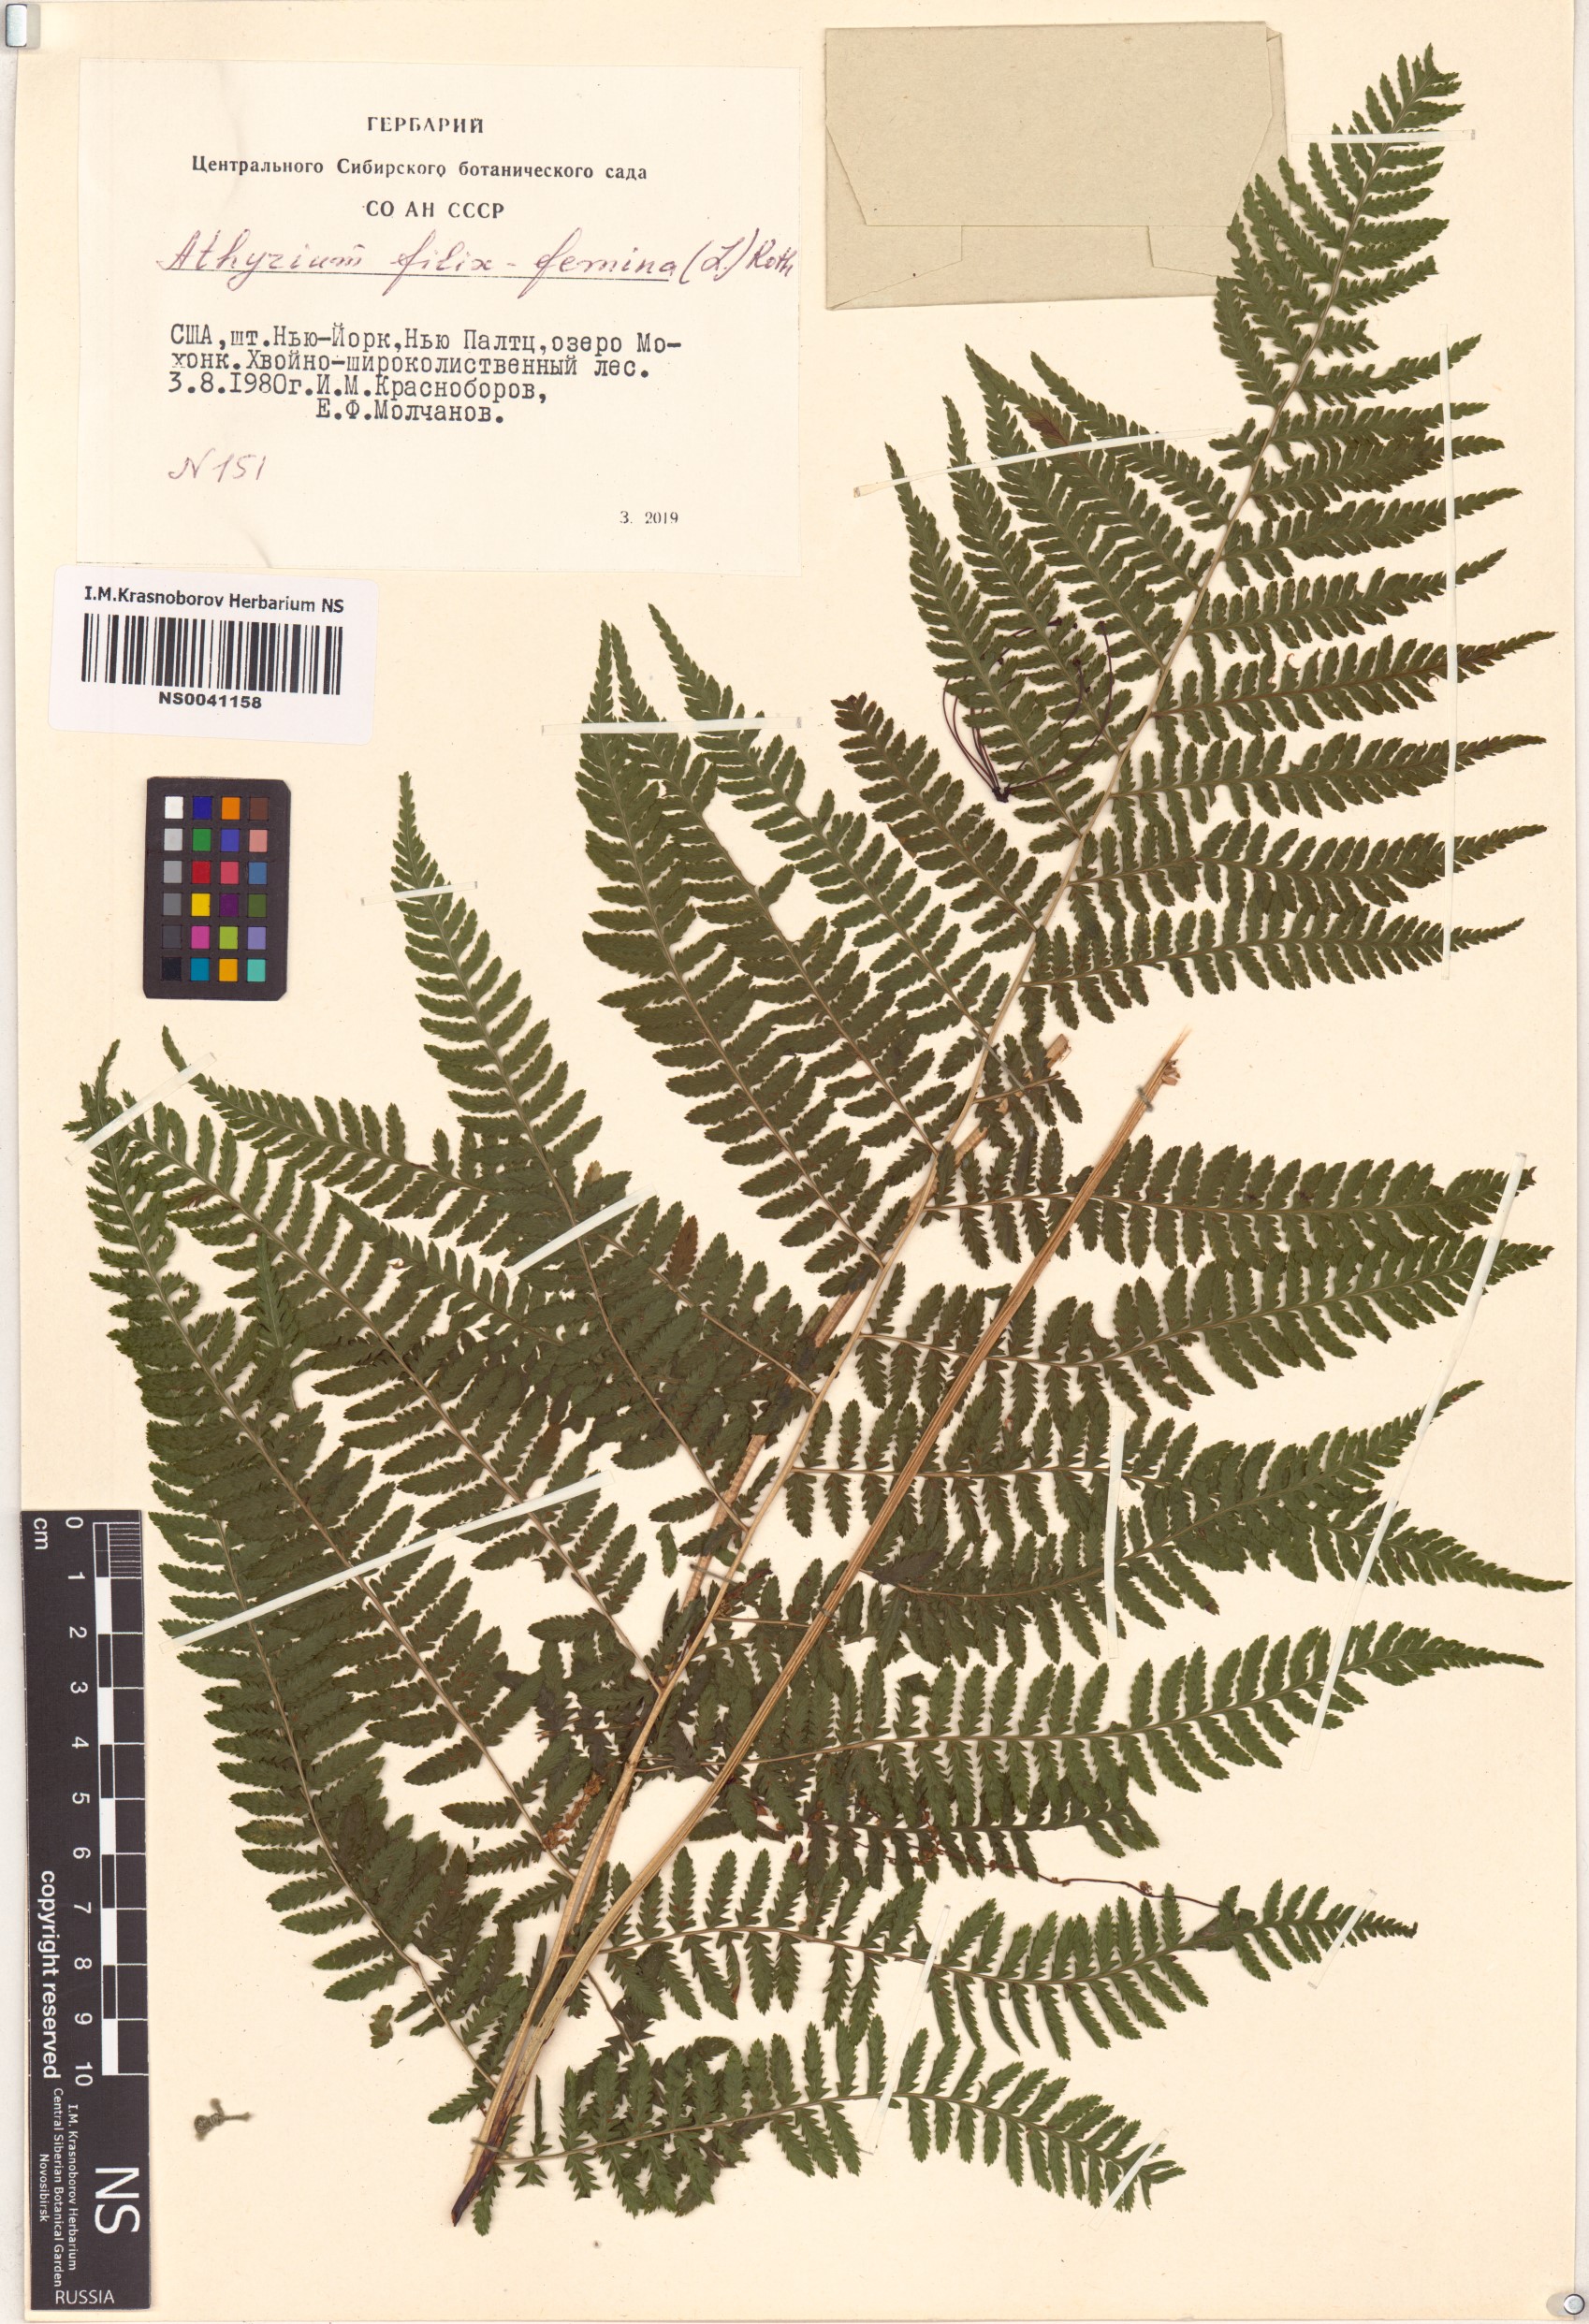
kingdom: Plantae
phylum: Tracheophyta
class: Polypodiopsida
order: Polypodiales
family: Athyriaceae
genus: Athyrium
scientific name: Athyrium filix-femina
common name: Lady fern
